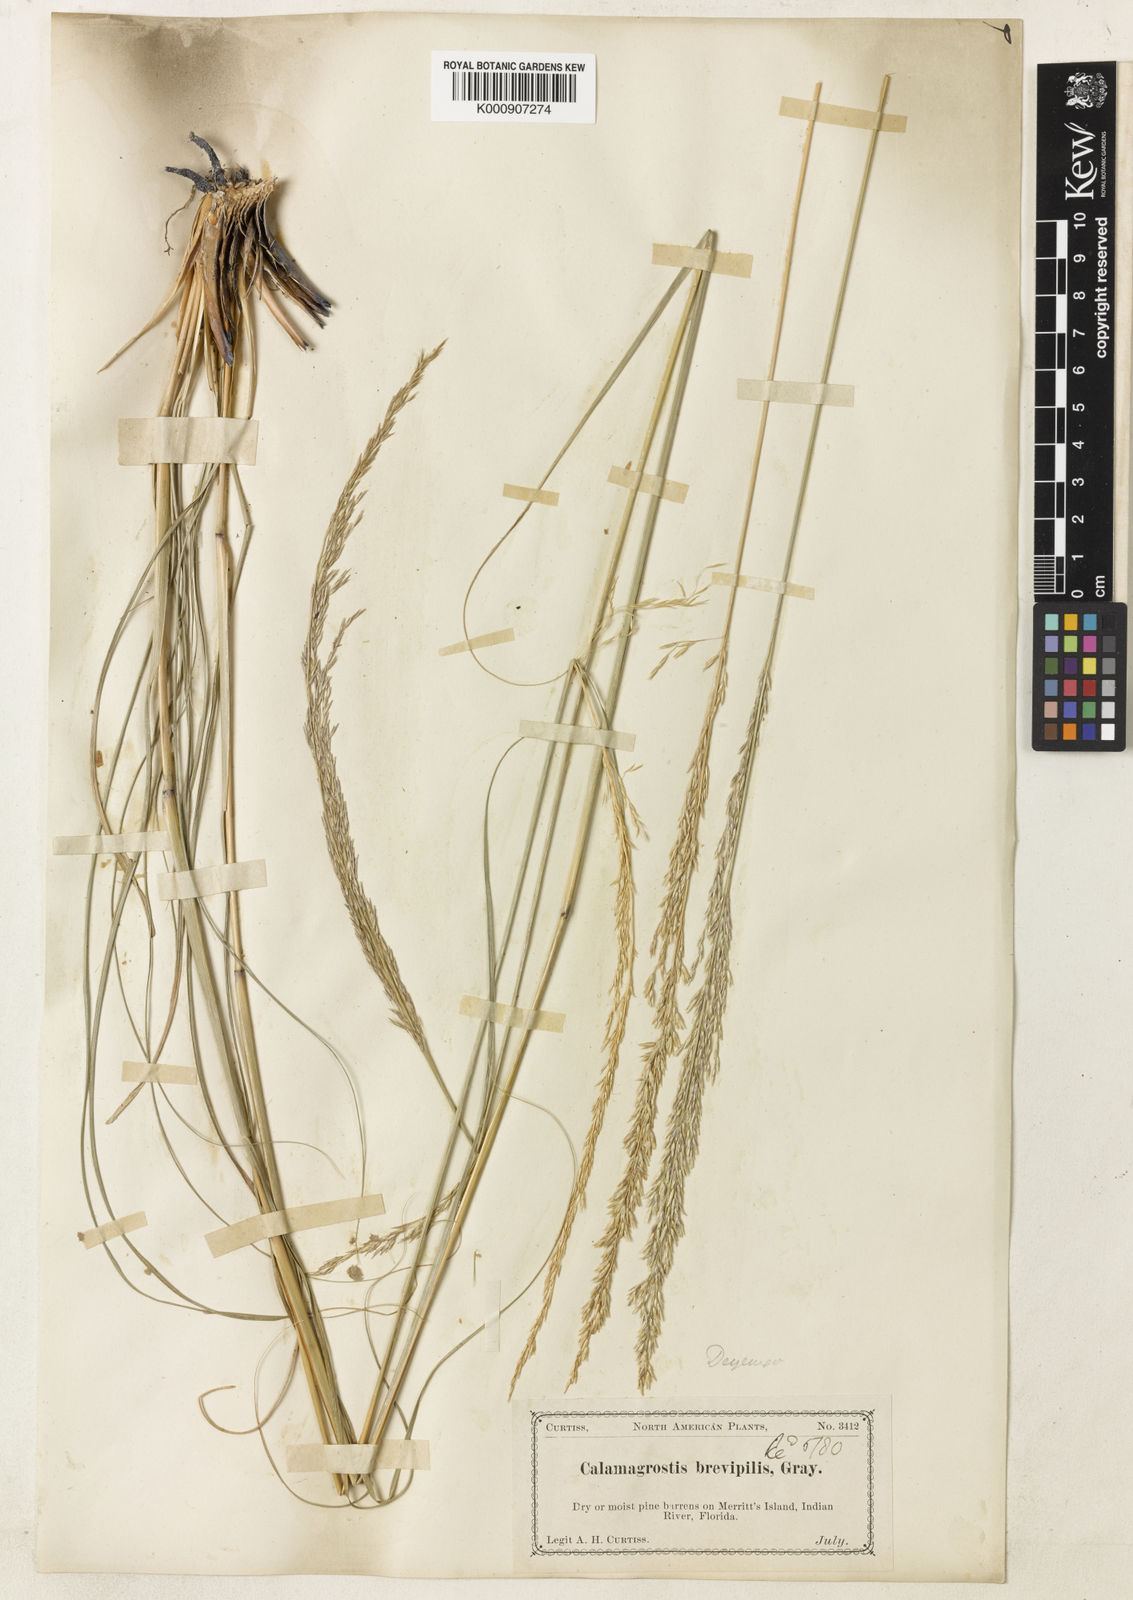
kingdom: Plantae
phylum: Tracheophyta
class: Liliopsida
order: Poales
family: Poaceae
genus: Sporobolus
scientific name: Sporobolus vaseyi
